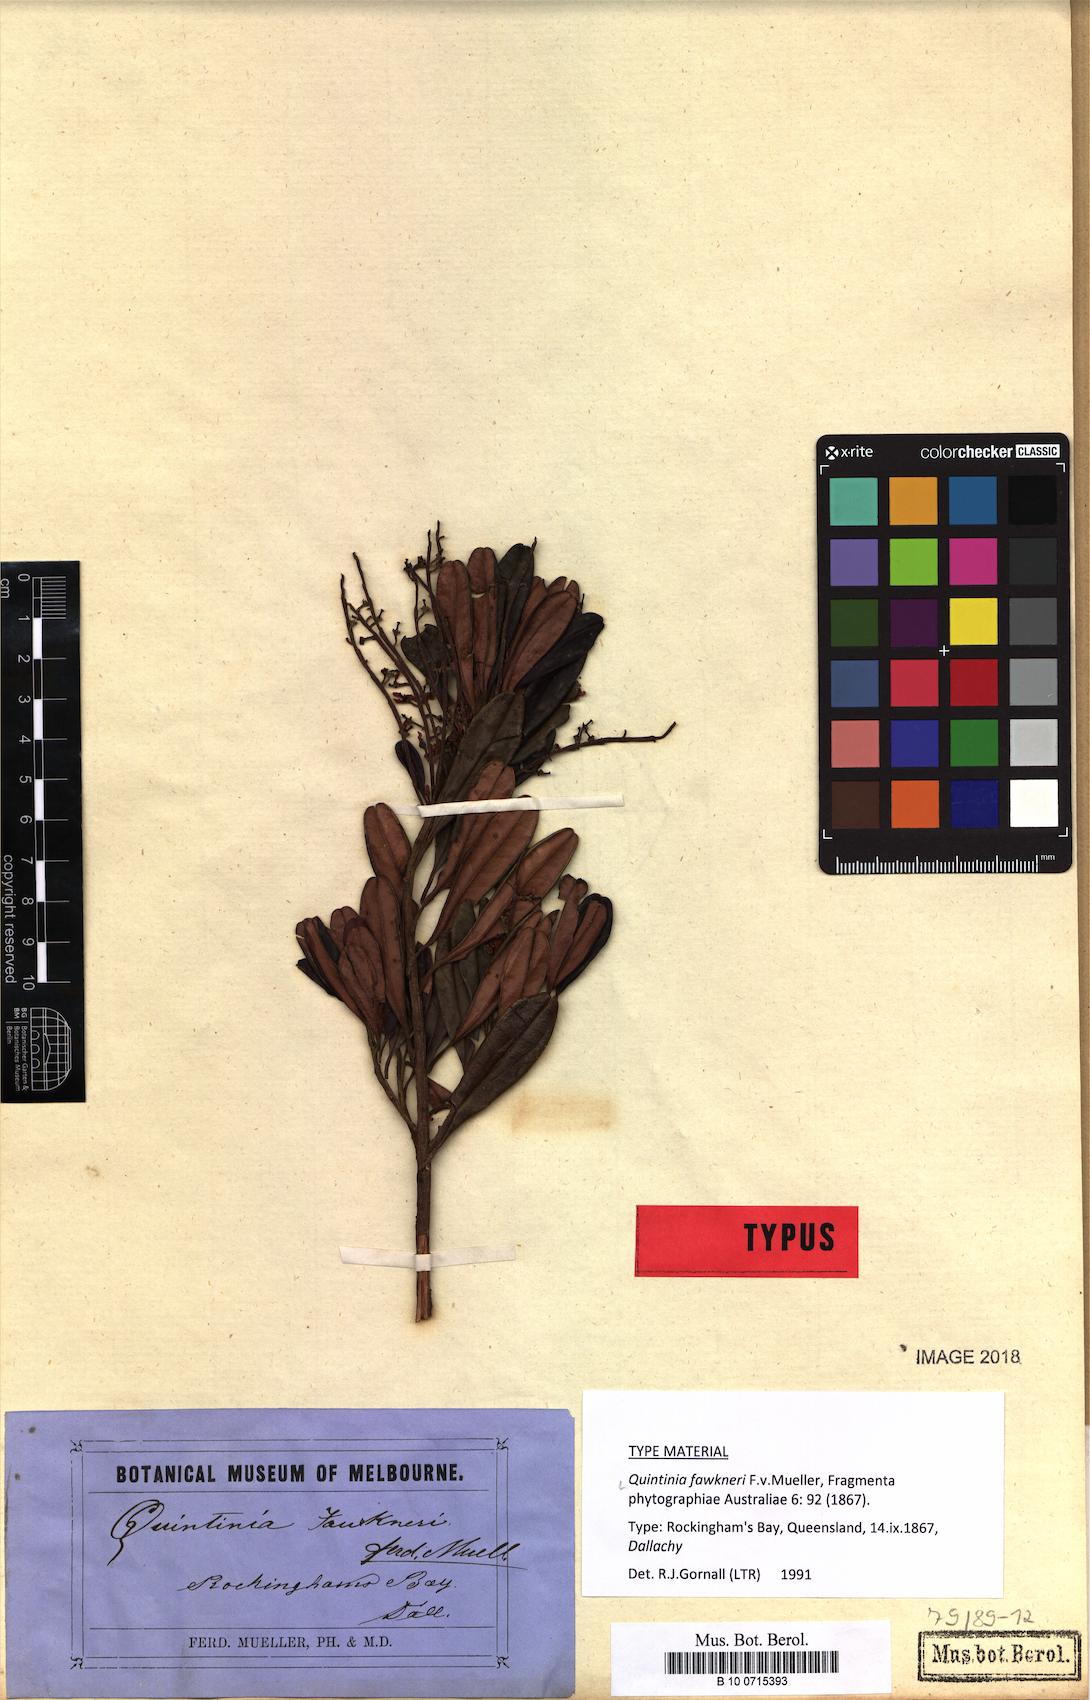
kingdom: Plantae
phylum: Tracheophyta
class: Magnoliopsida
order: Paracryphiales
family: Paracryphiaceae
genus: Quintinia
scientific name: Quintinia fawkneri
